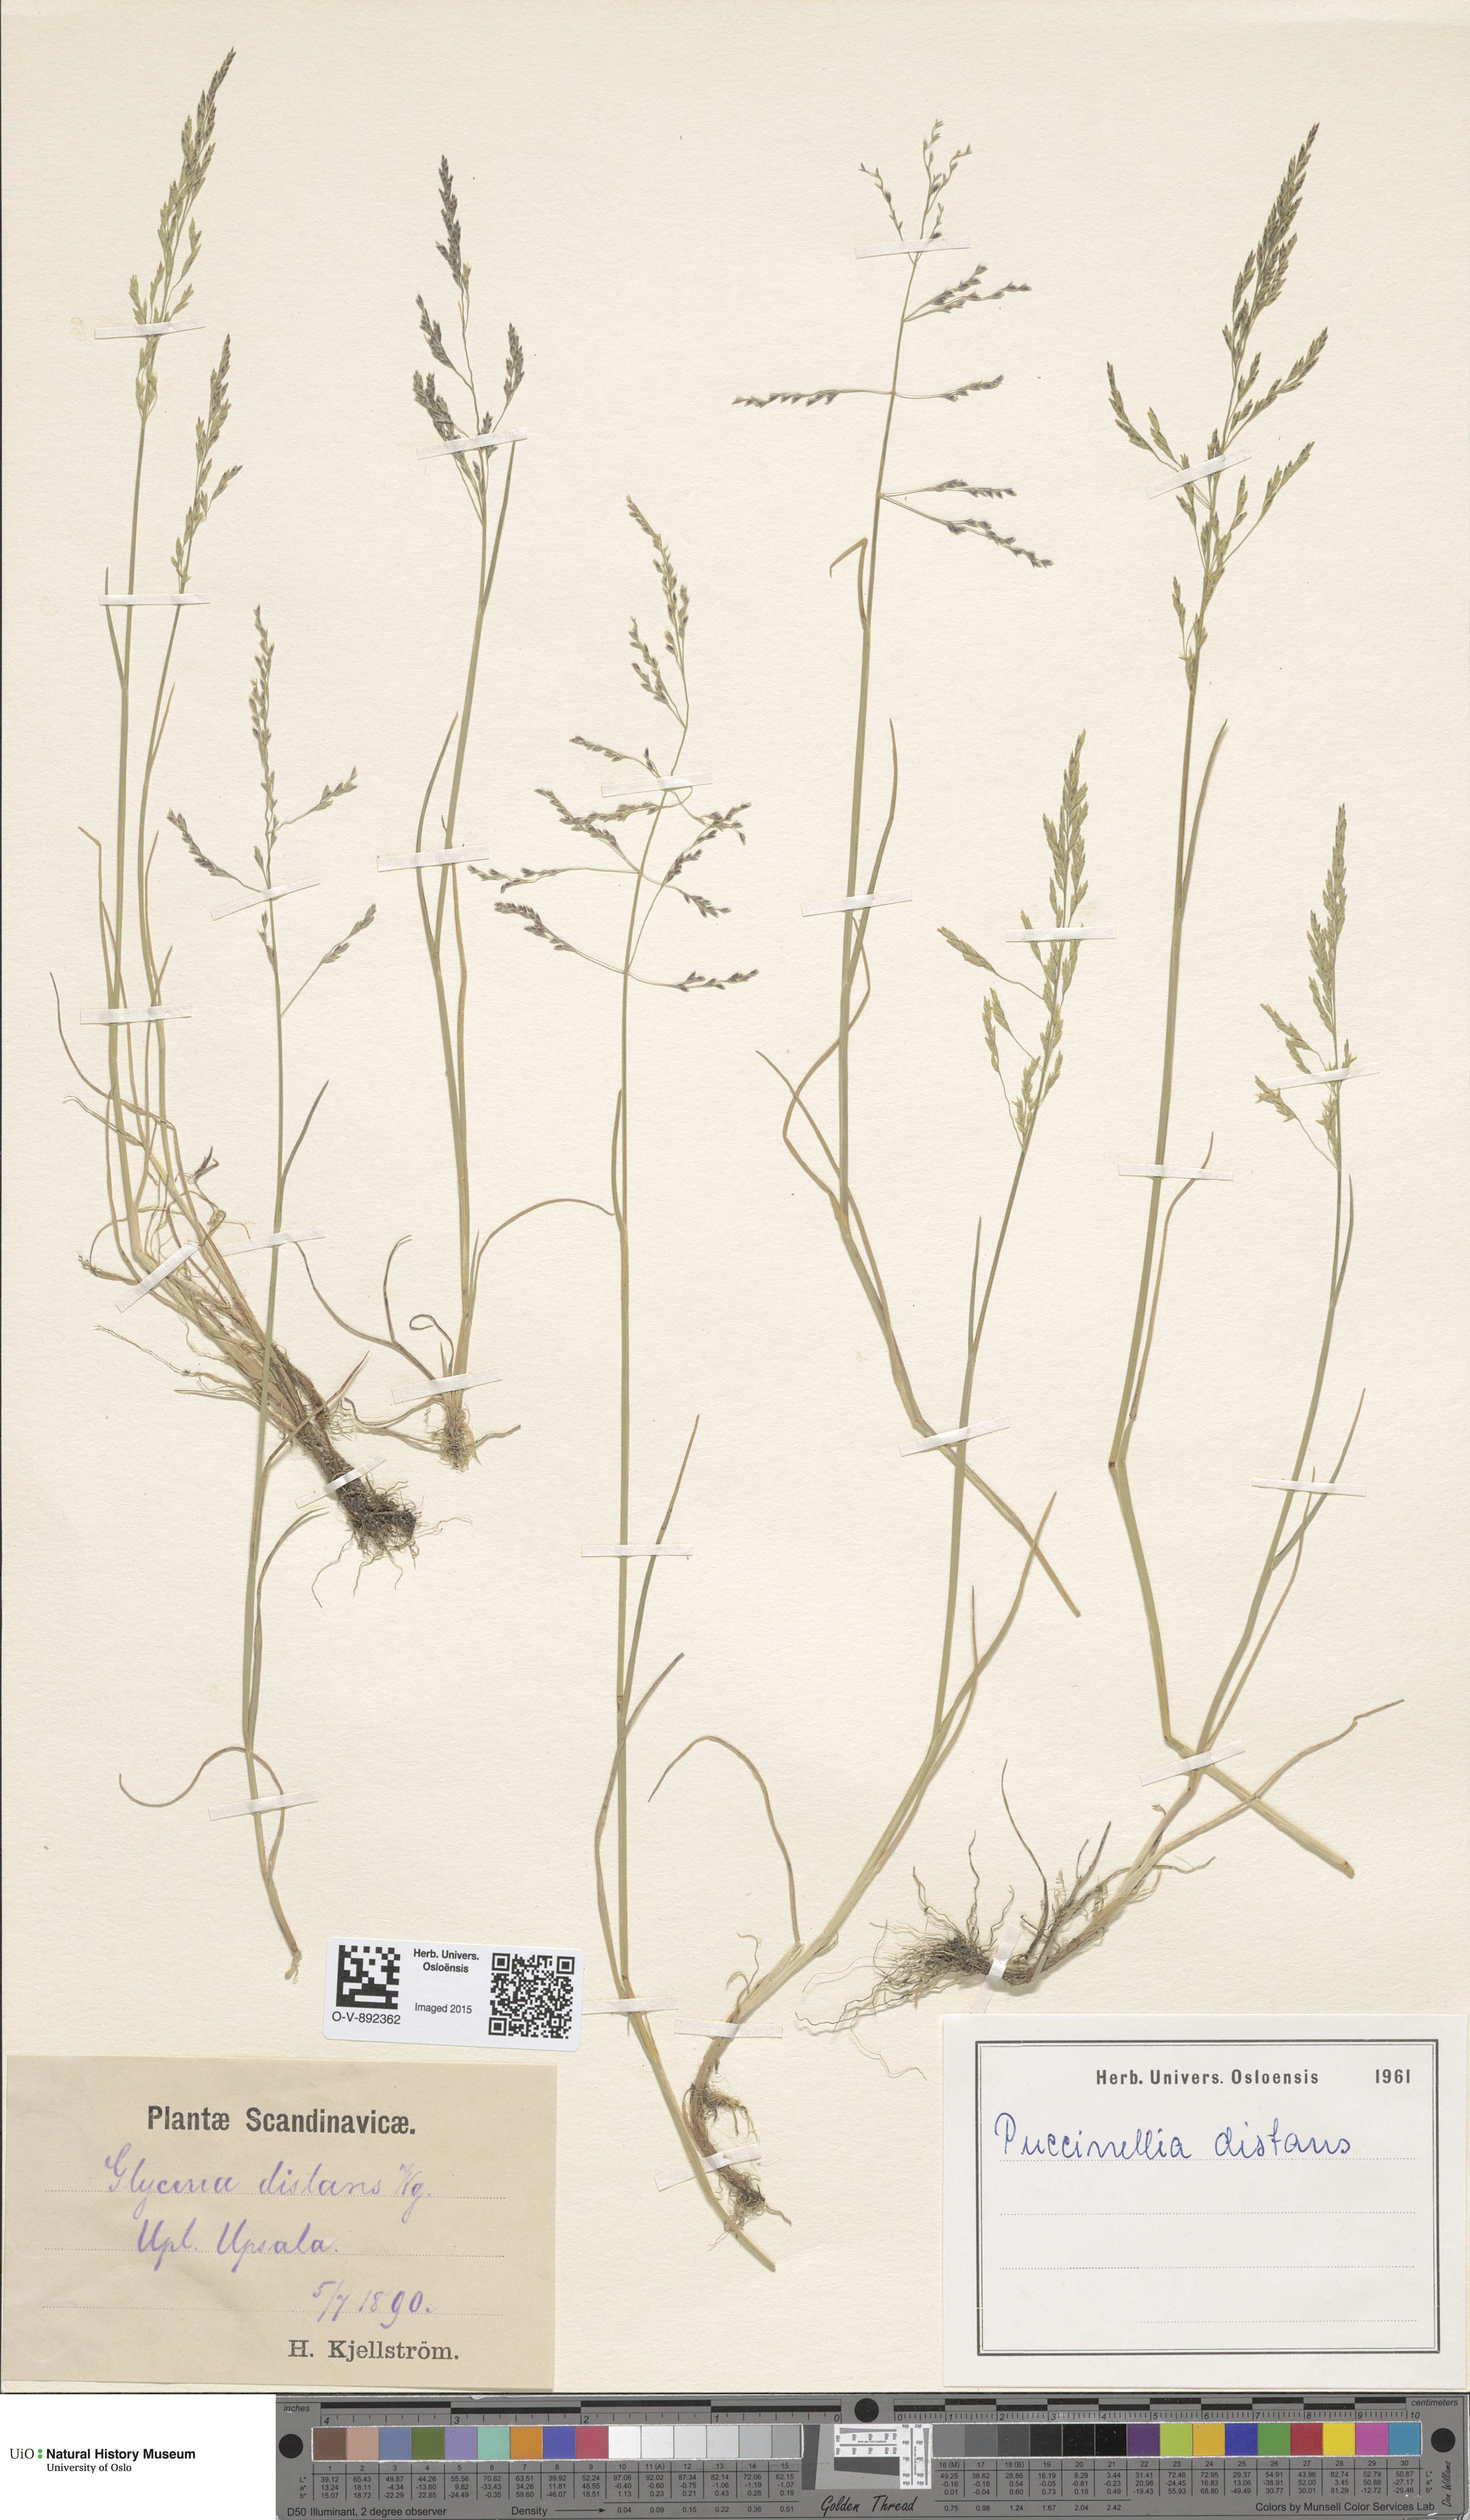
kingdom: Plantae
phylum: Tracheophyta
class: Liliopsida
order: Poales
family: Poaceae
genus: Puccinellia
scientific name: Puccinellia distans
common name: Weeping alkaligrass
